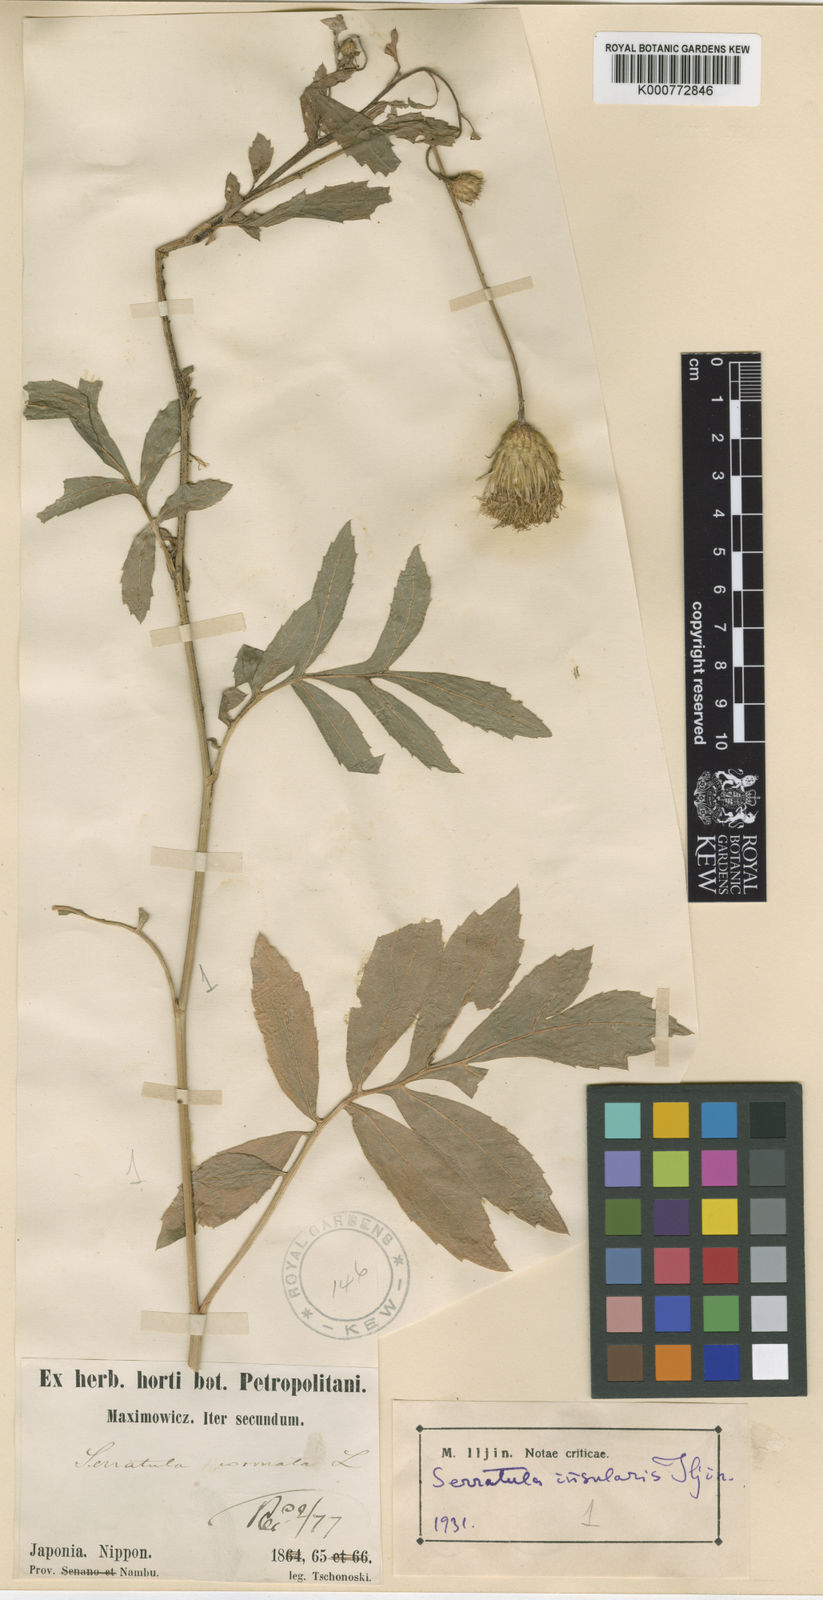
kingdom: Plantae
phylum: Tracheophyta
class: Magnoliopsida
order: Asterales
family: Asteraceae
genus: Serratula
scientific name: Serratula coronata
